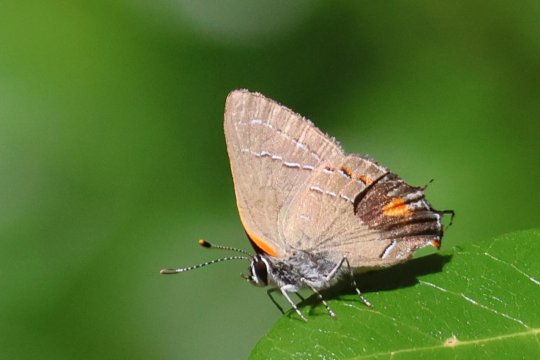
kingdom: Animalia
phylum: Arthropoda
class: Insecta
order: Lepidoptera
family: Lycaenidae
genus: Fixsenia
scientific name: Fixsenia favonius
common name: Oak Hairstreak
